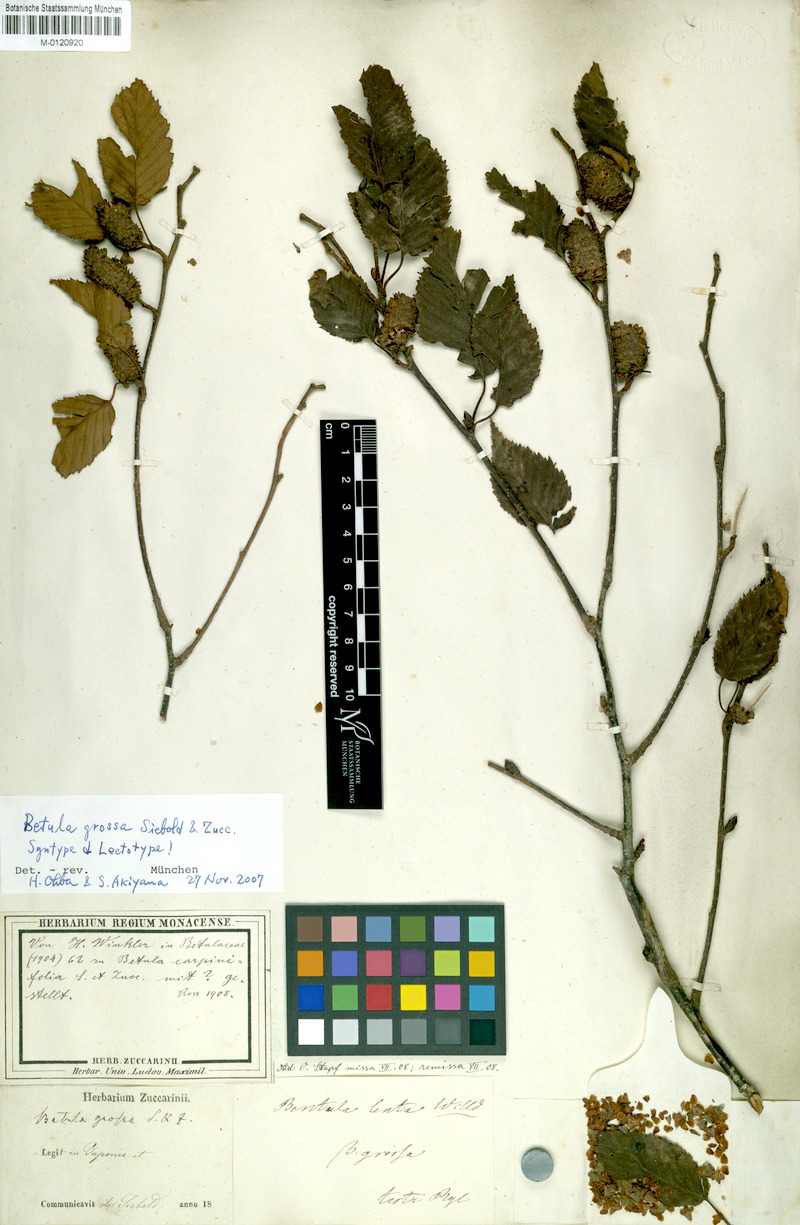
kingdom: Plantae
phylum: Tracheophyta
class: Magnoliopsida
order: Fagales
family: Betulaceae
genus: Betula
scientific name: Betula grossa
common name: Japanese cherry birch
